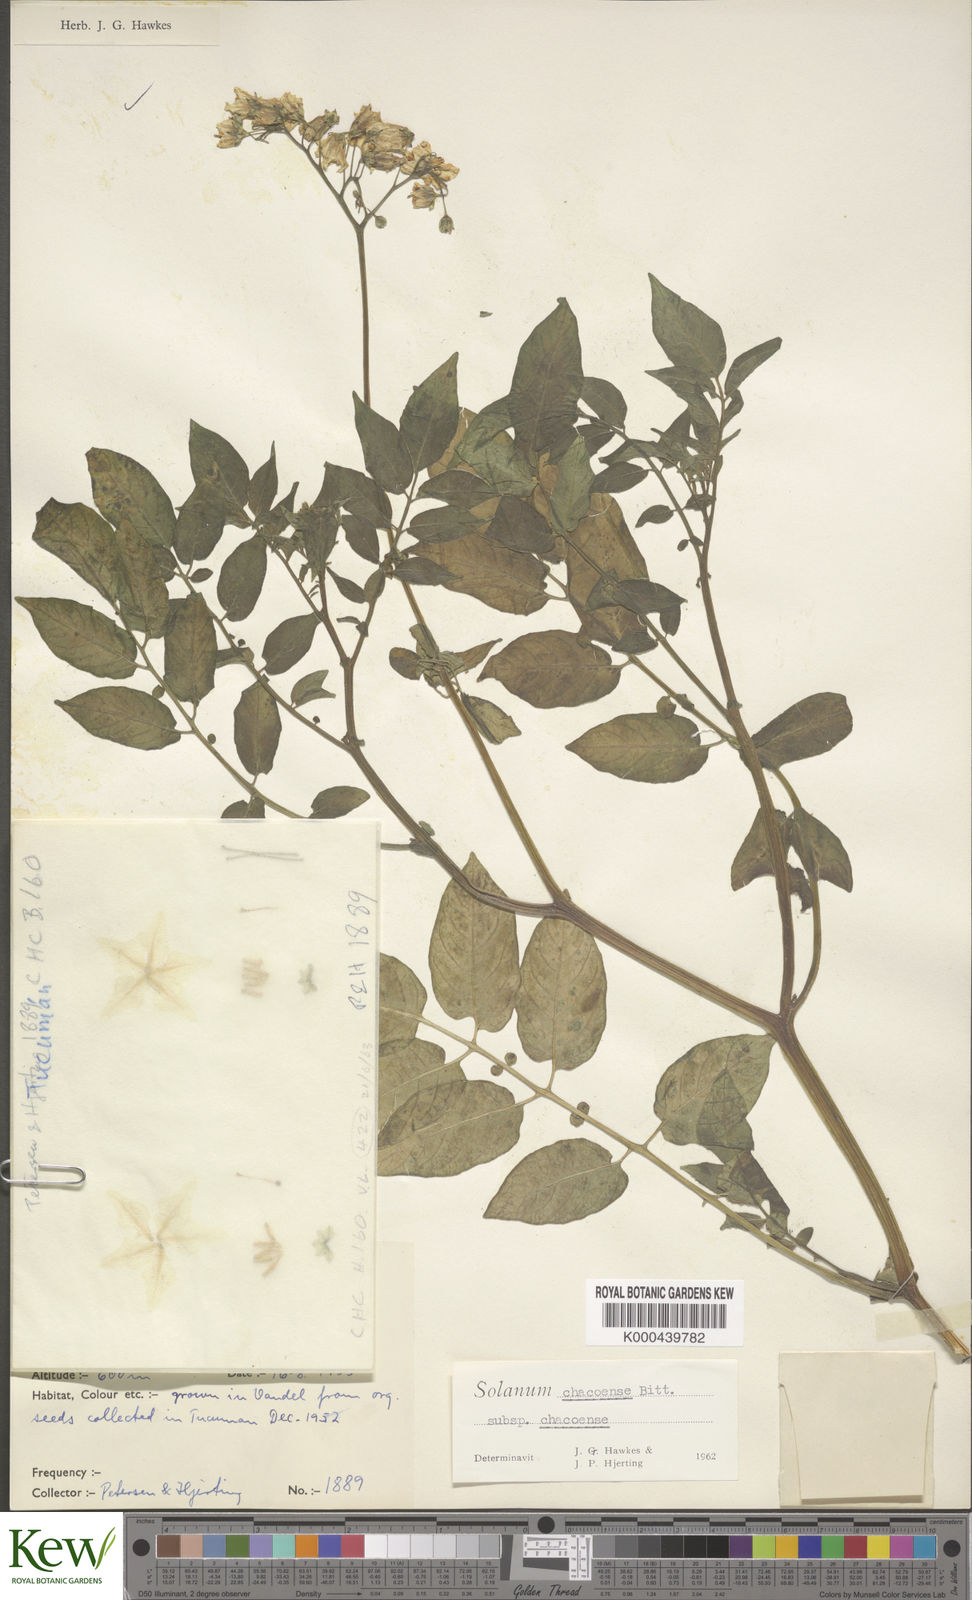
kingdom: Plantae
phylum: Tracheophyta
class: Magnoliopsida
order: Solanales
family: Solanaceae
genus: Solanum
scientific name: Solanum chacoense
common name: Chaco potato
